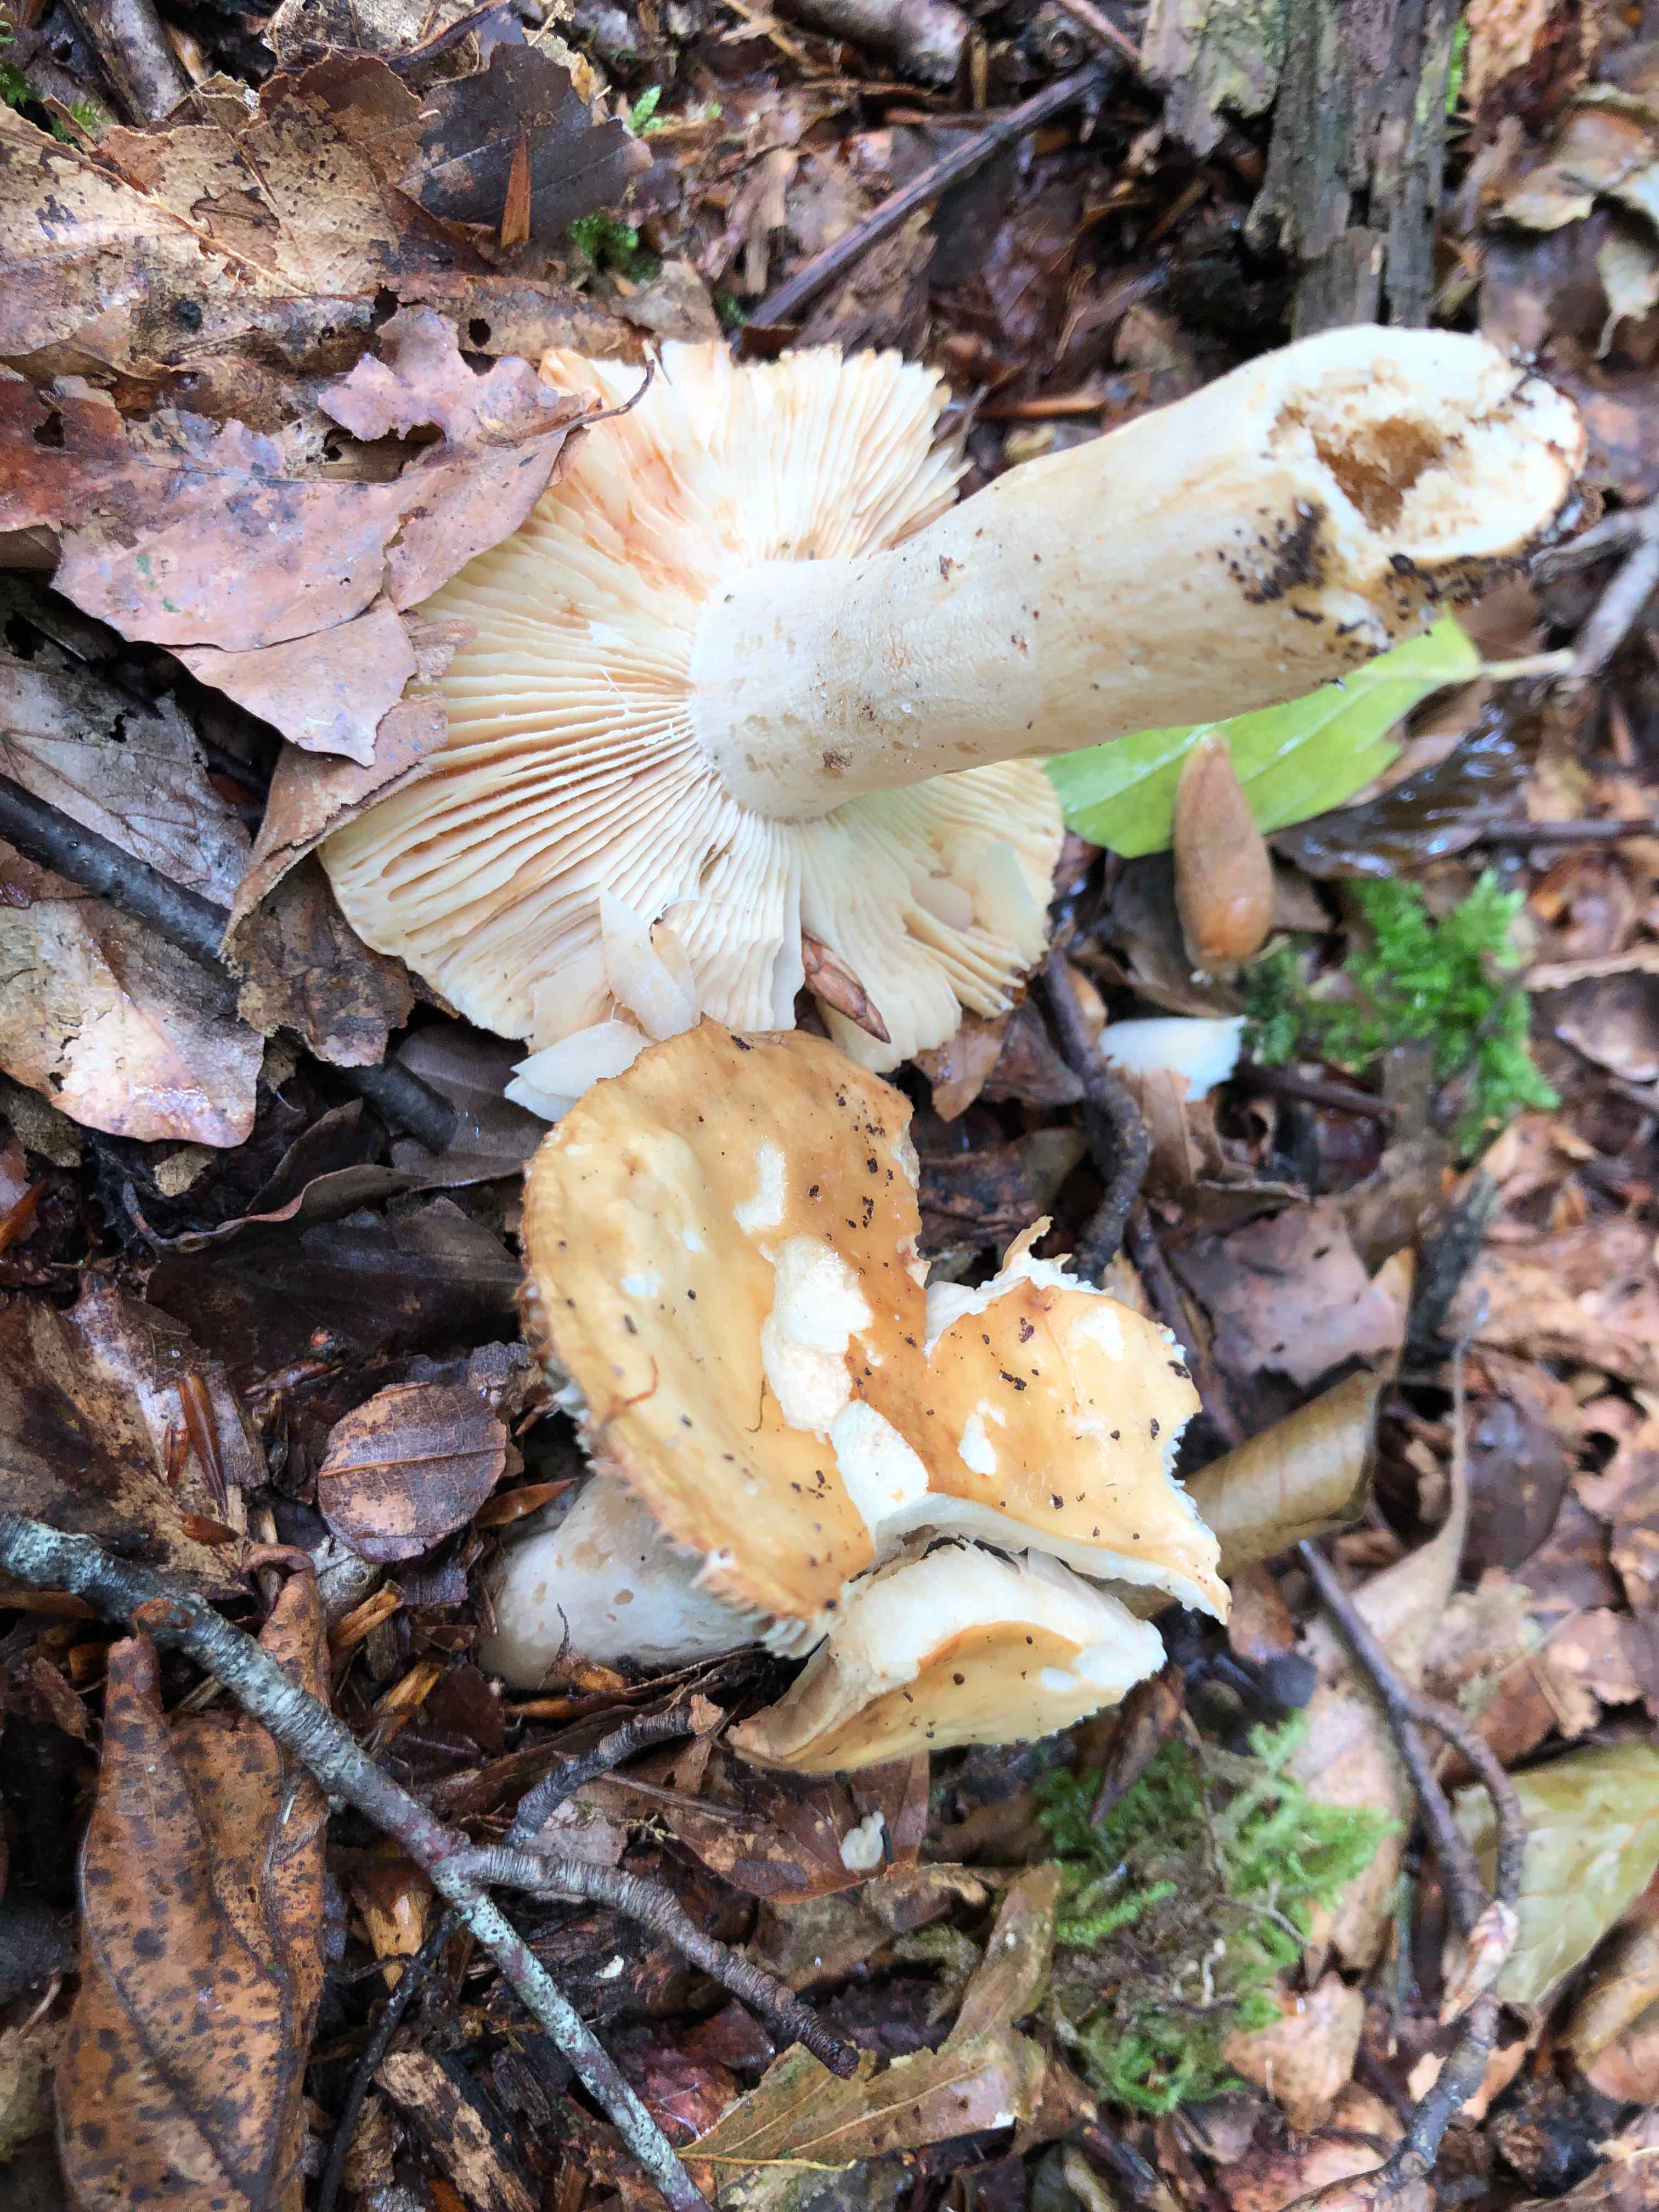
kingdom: Fungi
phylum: Basidiomycota
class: Agaricomycetes
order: Russulales
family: Russulaceae
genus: Russula
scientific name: Russula fellea
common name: galde-skørhat
